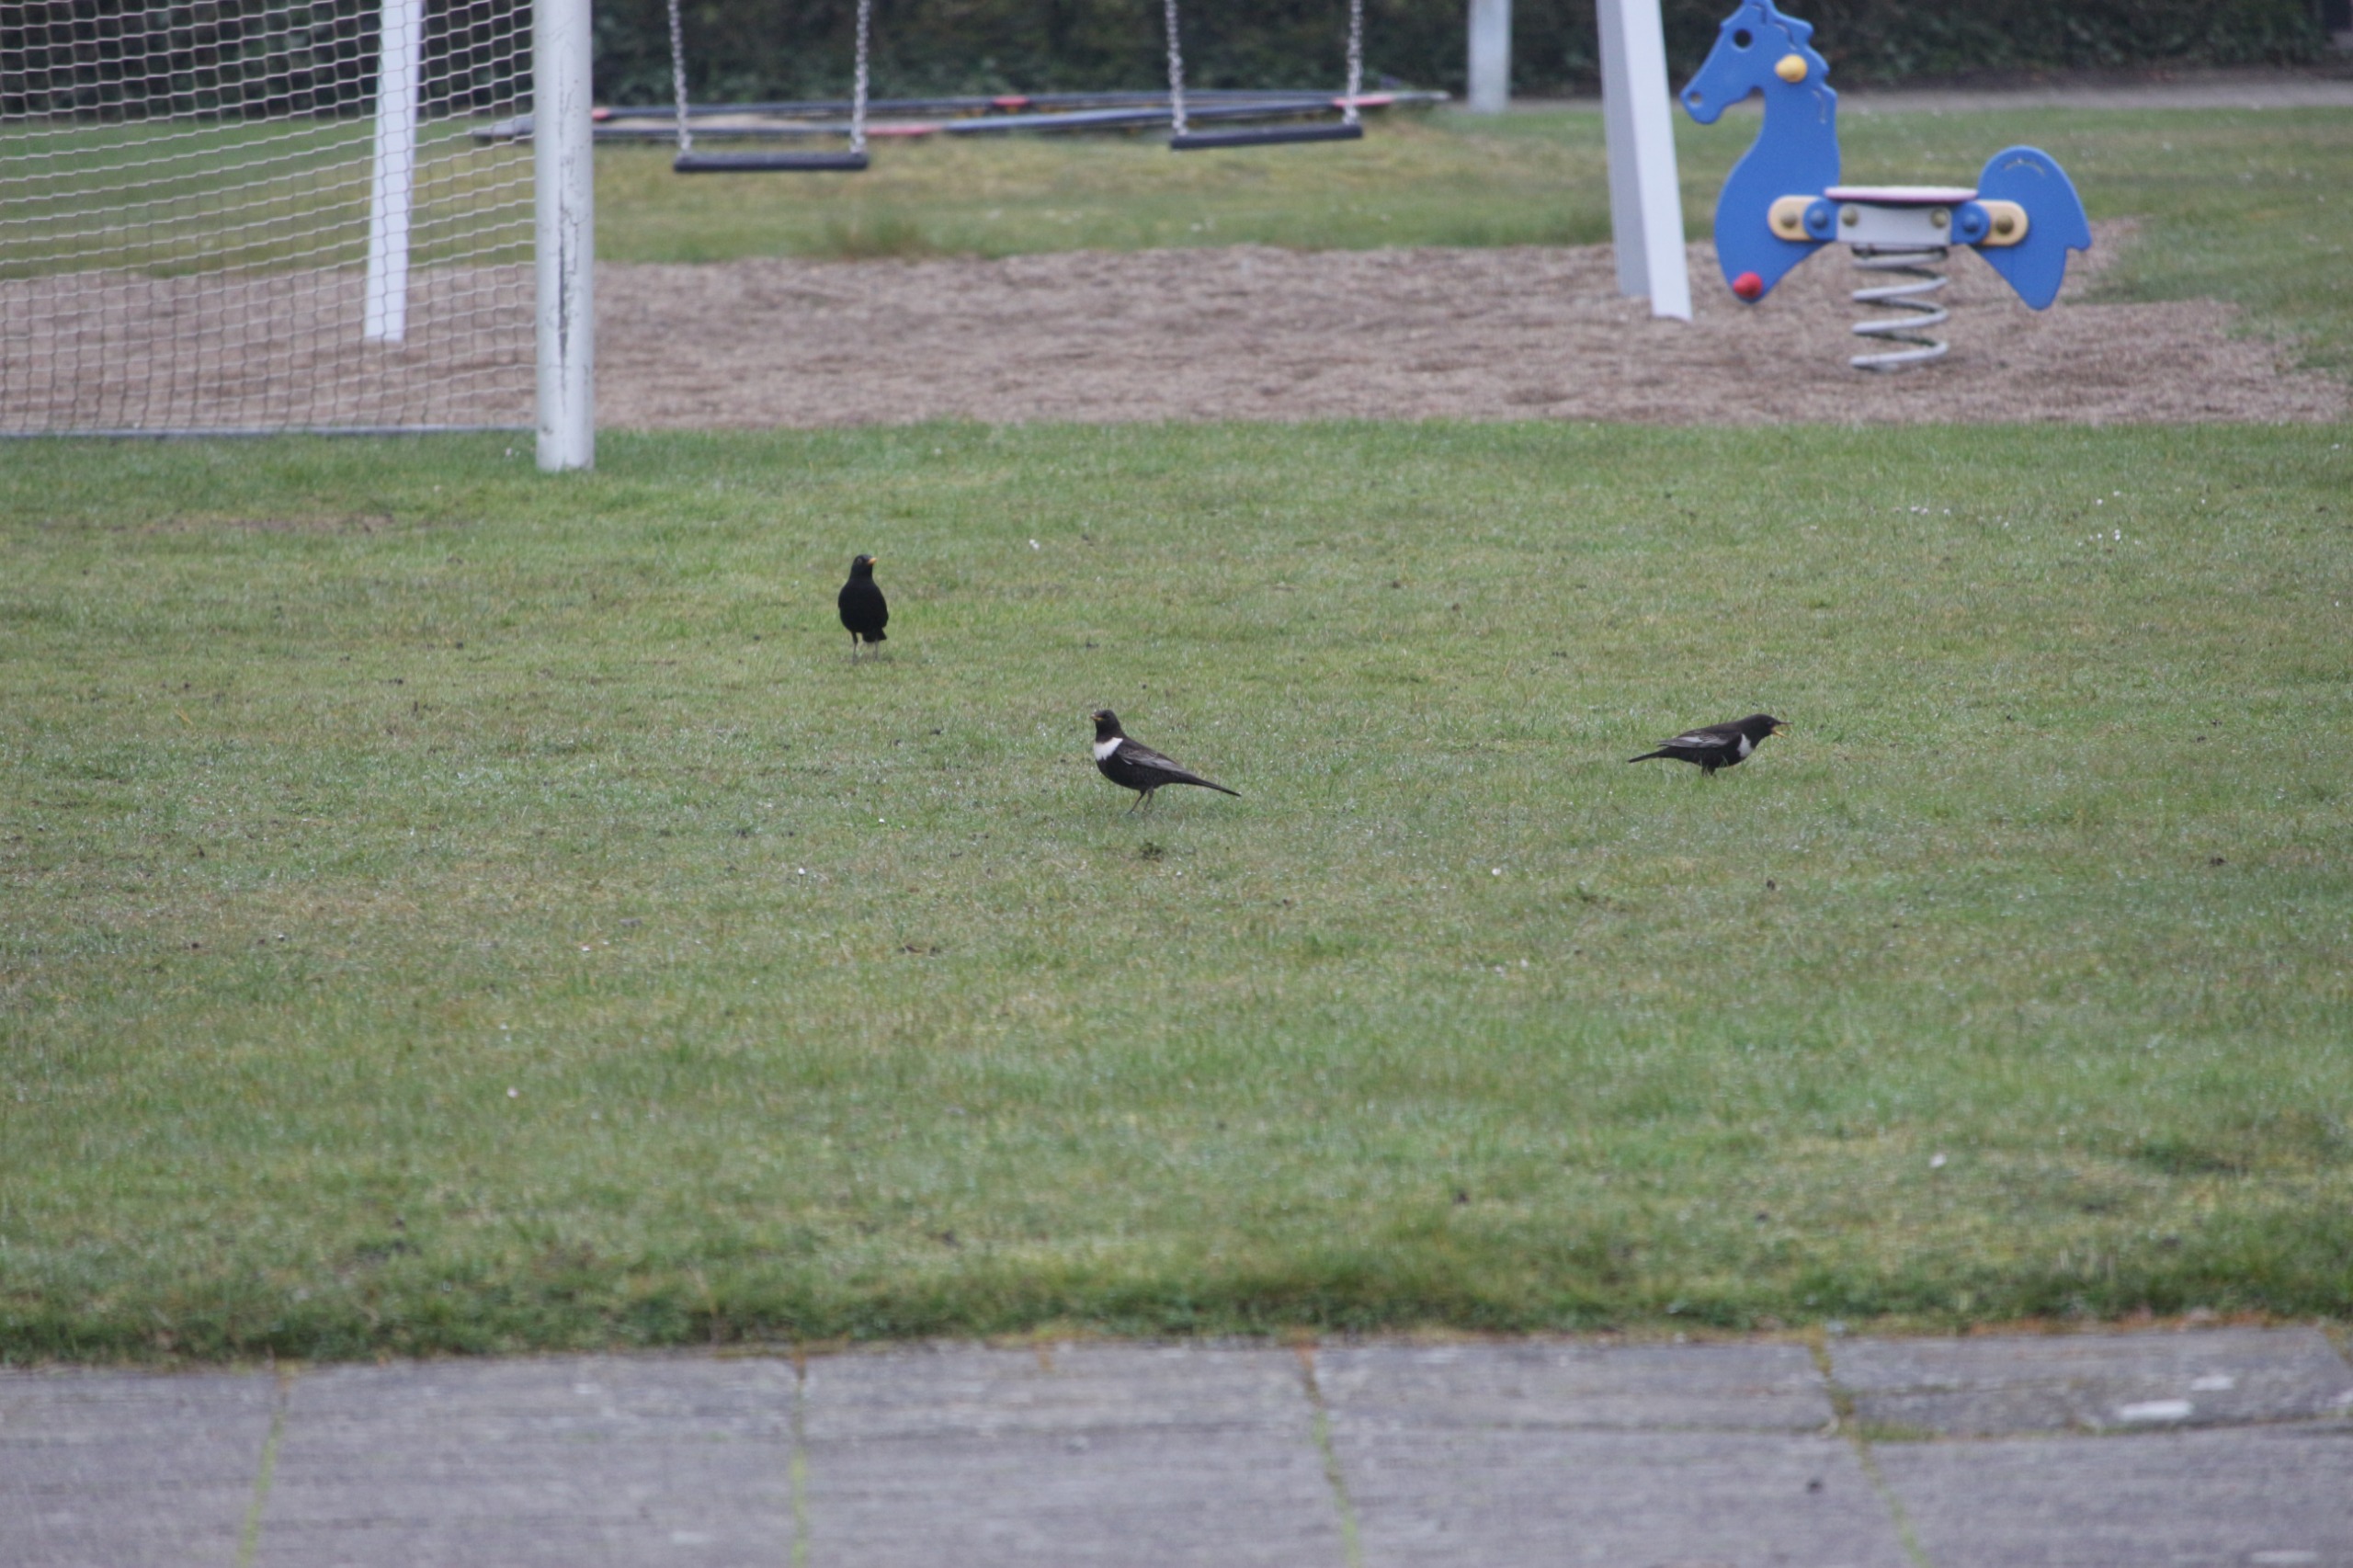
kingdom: Animalia
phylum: Chordata
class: Aves
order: Passeriformes
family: Turdidae
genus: Turdus
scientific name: Turdus torquatus
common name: Ringdrossel
